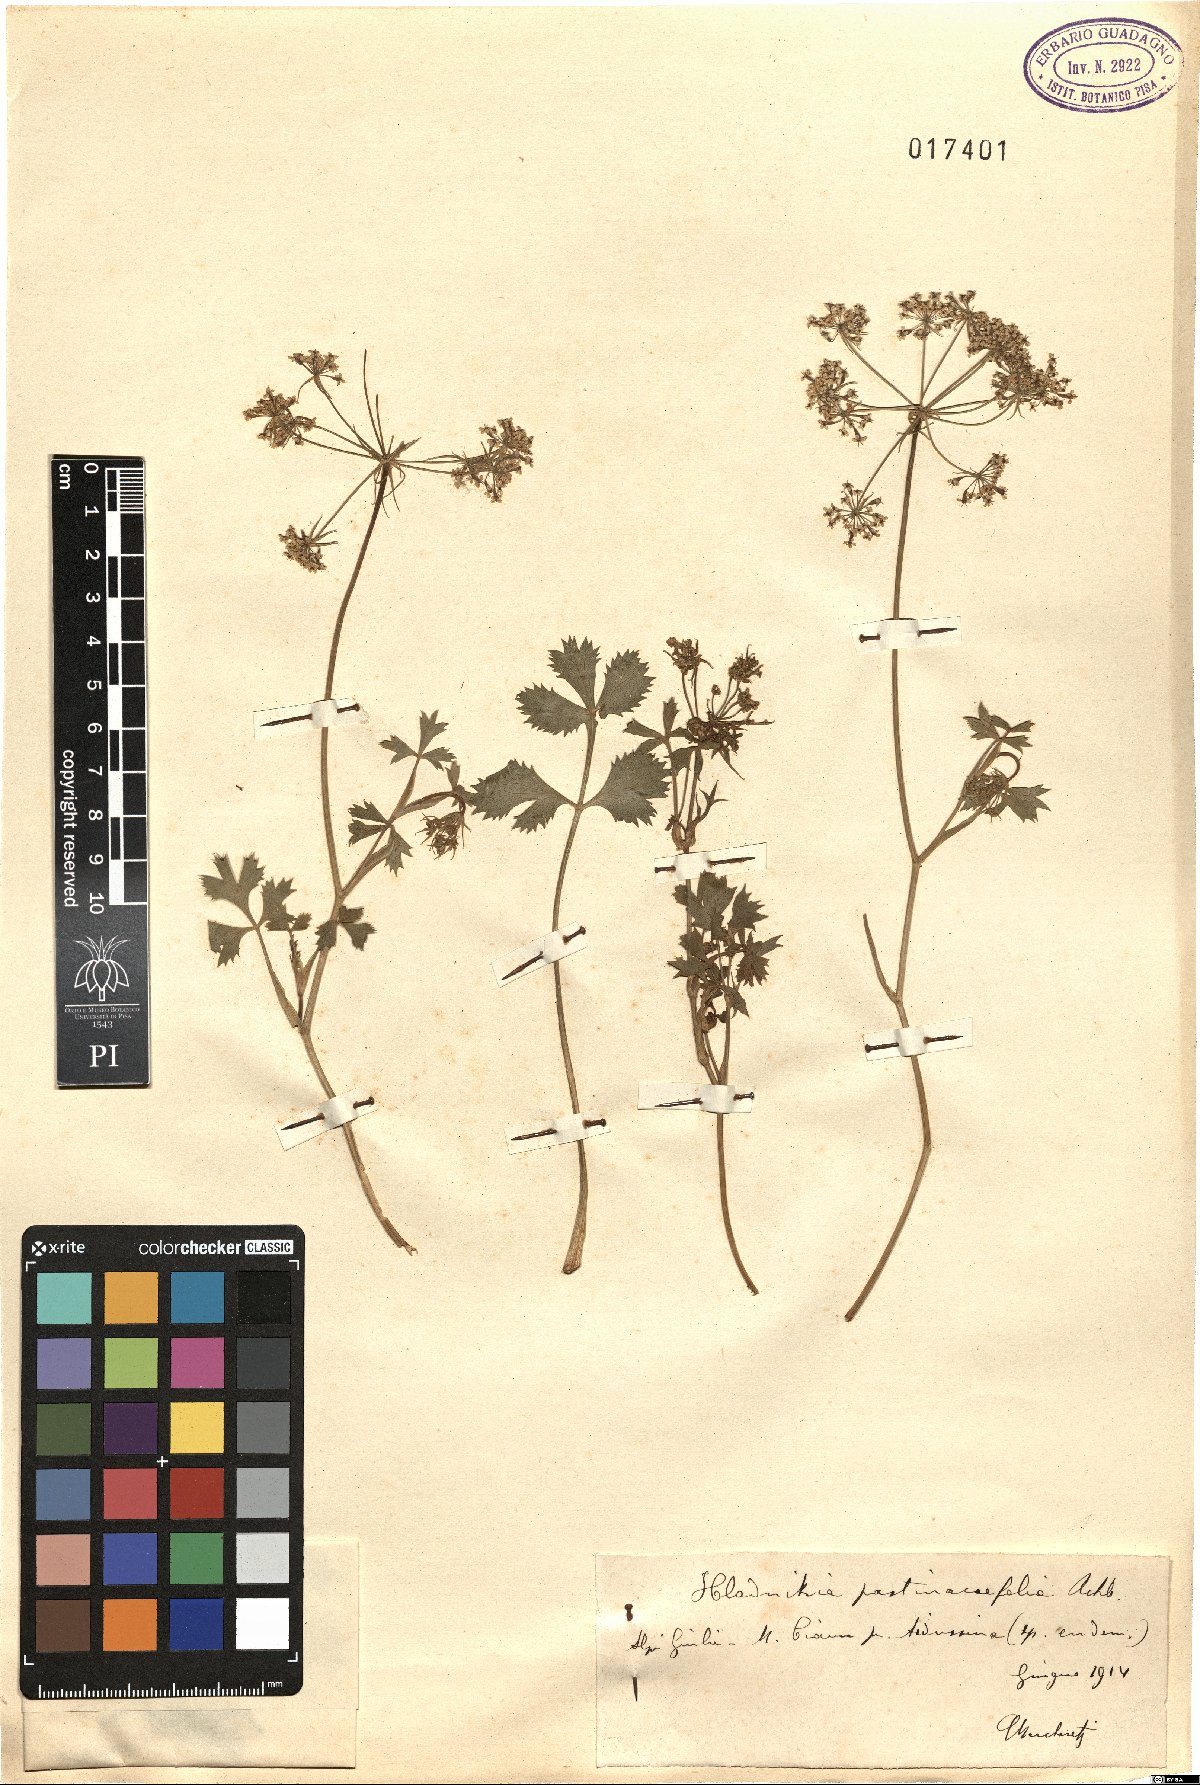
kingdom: Plantae
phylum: Tracheophyta
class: Magnoliopsida
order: Apiales
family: Apiaceae
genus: Hladnikia
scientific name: Hladnikia pastinacifolia
